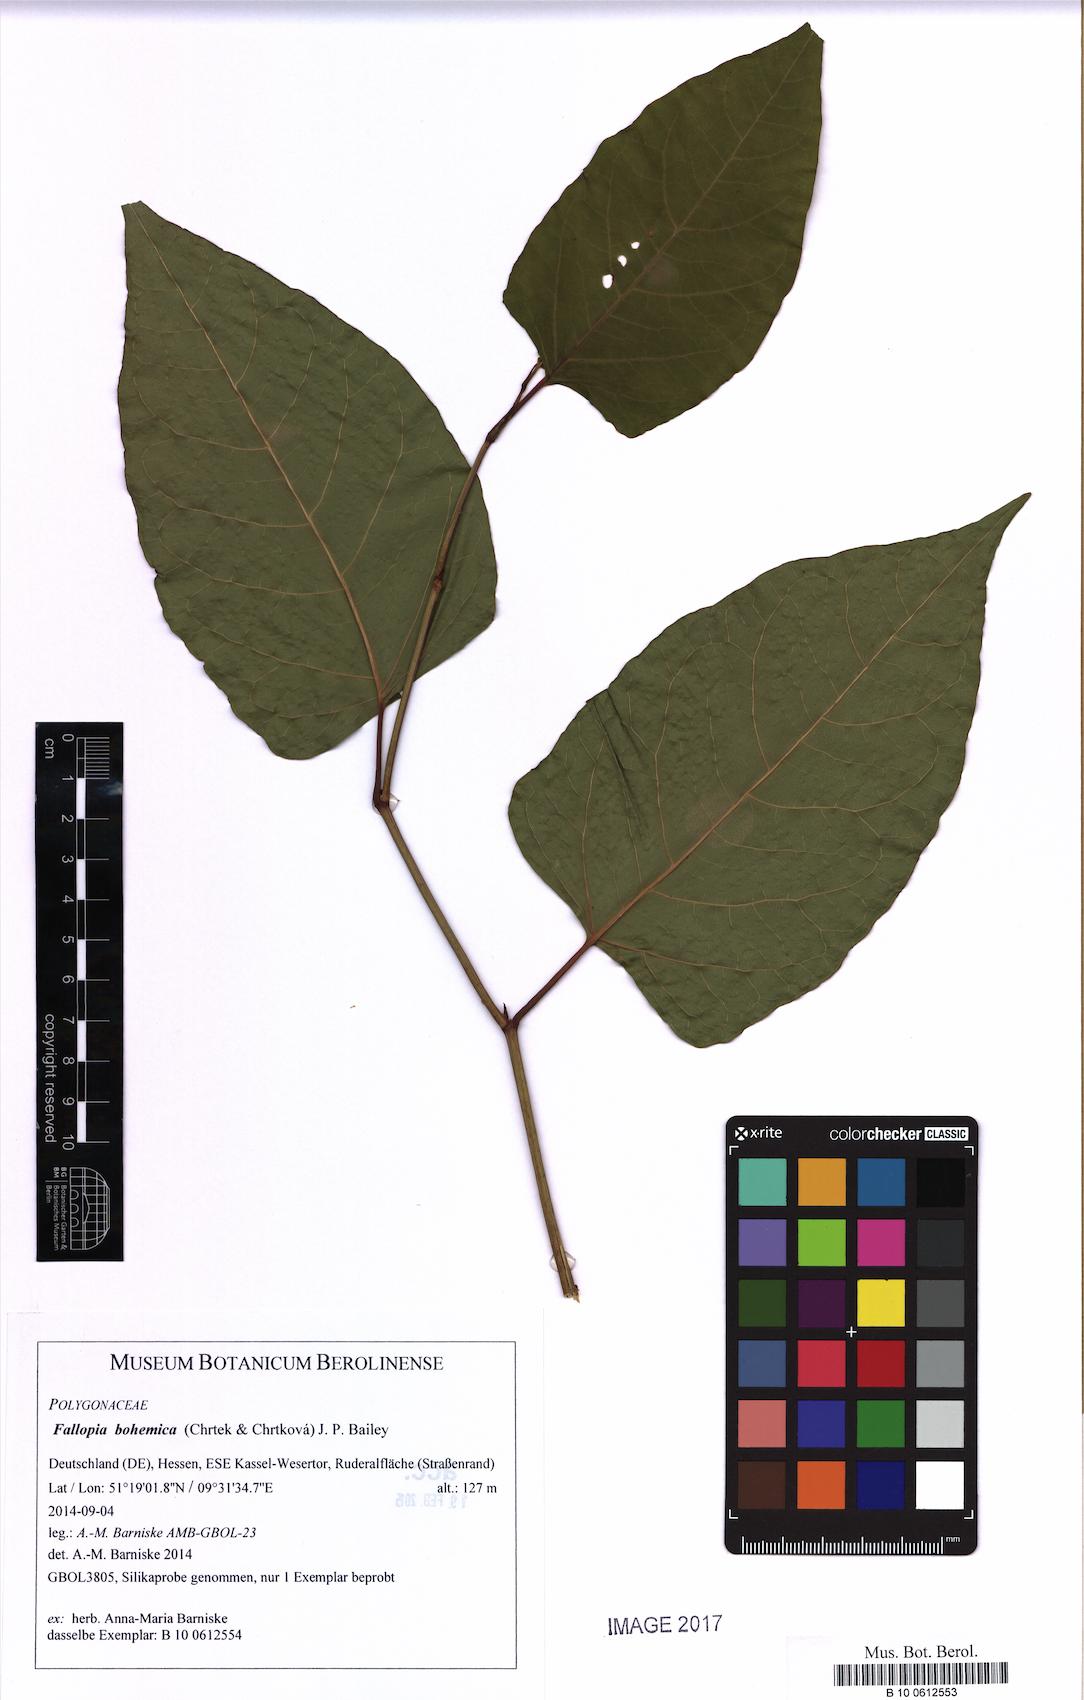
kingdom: Plantae
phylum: Tracheophyta
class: Magnoliopsida
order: Caryophyllales
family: Polygonaceae
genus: Reynoutria
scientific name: Reynoutria bohemica
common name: Bohemian knotweed
